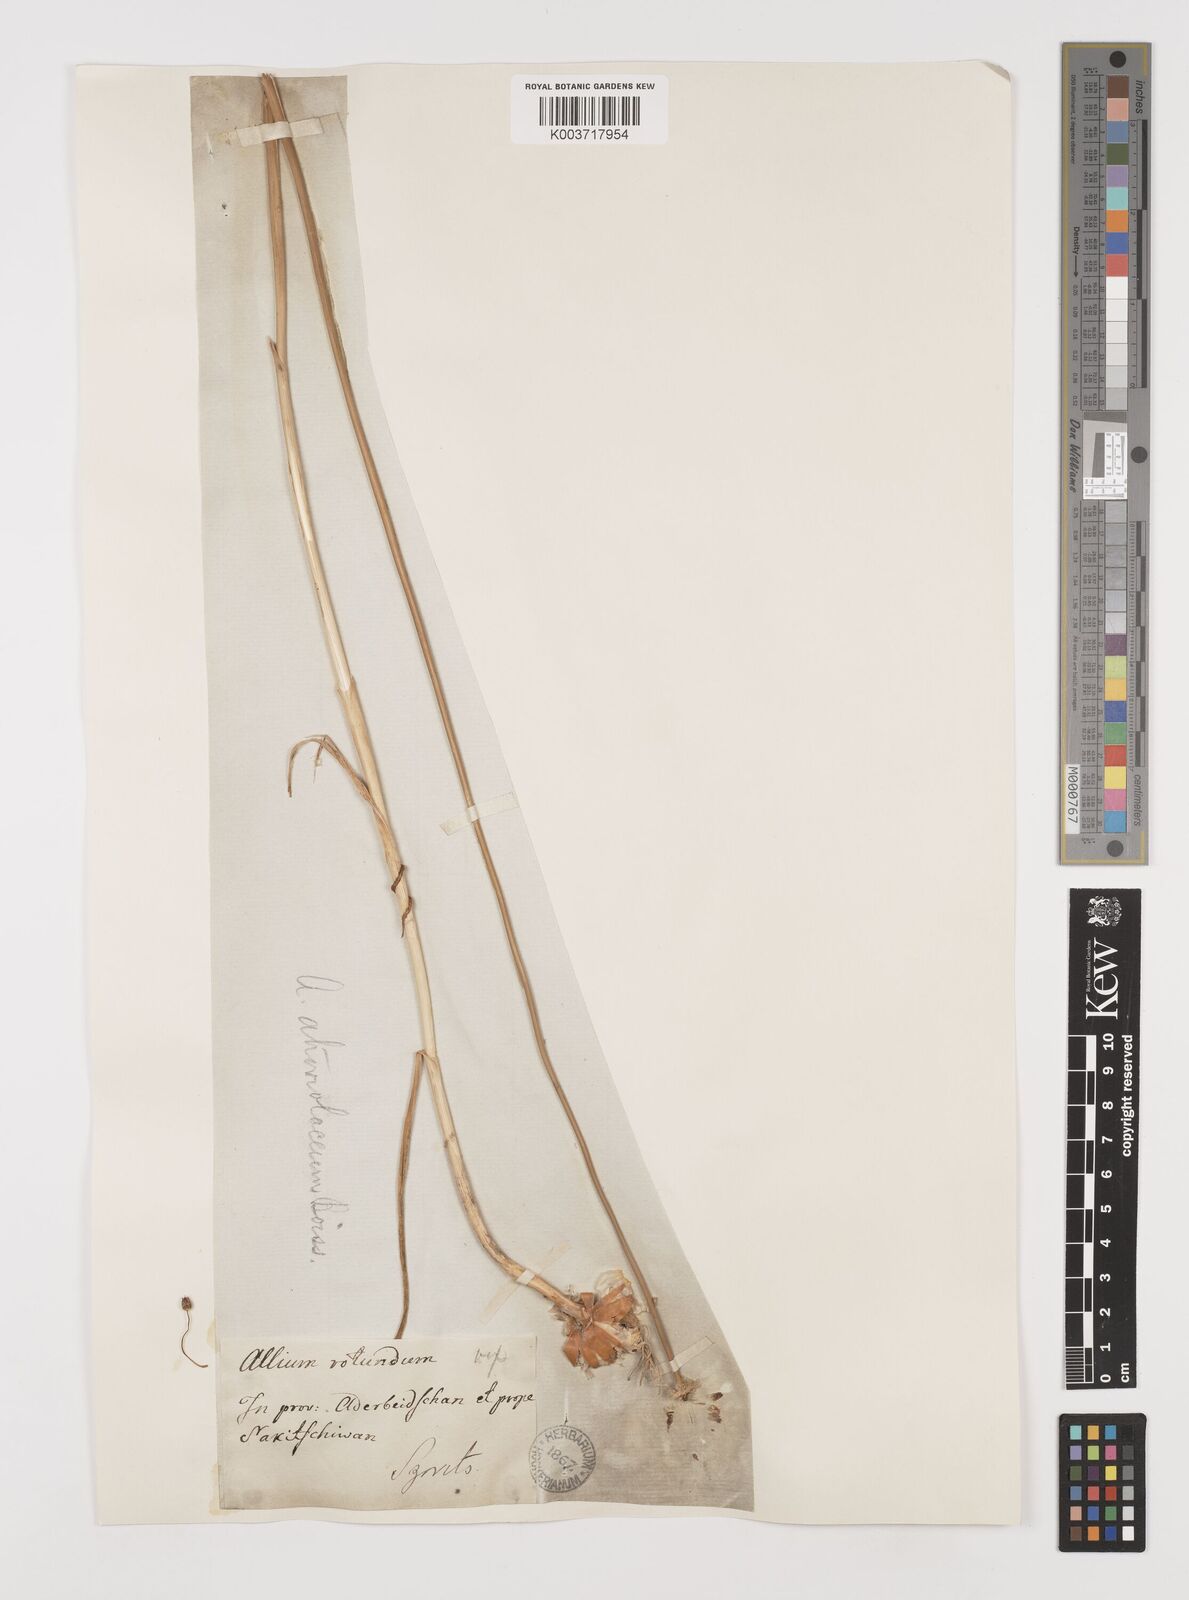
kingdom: Plantae
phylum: Tracheophyta
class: Liliopsida
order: Asparagales
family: Amaryllidaceae
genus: Allium
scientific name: Allium atroviolaceum
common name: Broadleaf wild leek
